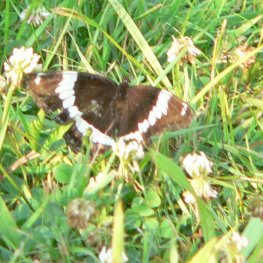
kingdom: Animalia
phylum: Arthropoda
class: Insecta
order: Lepidoptera
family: Nymphalidae
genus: Limenitis
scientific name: Limenitis arthemis
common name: Red-spotted Admiral
